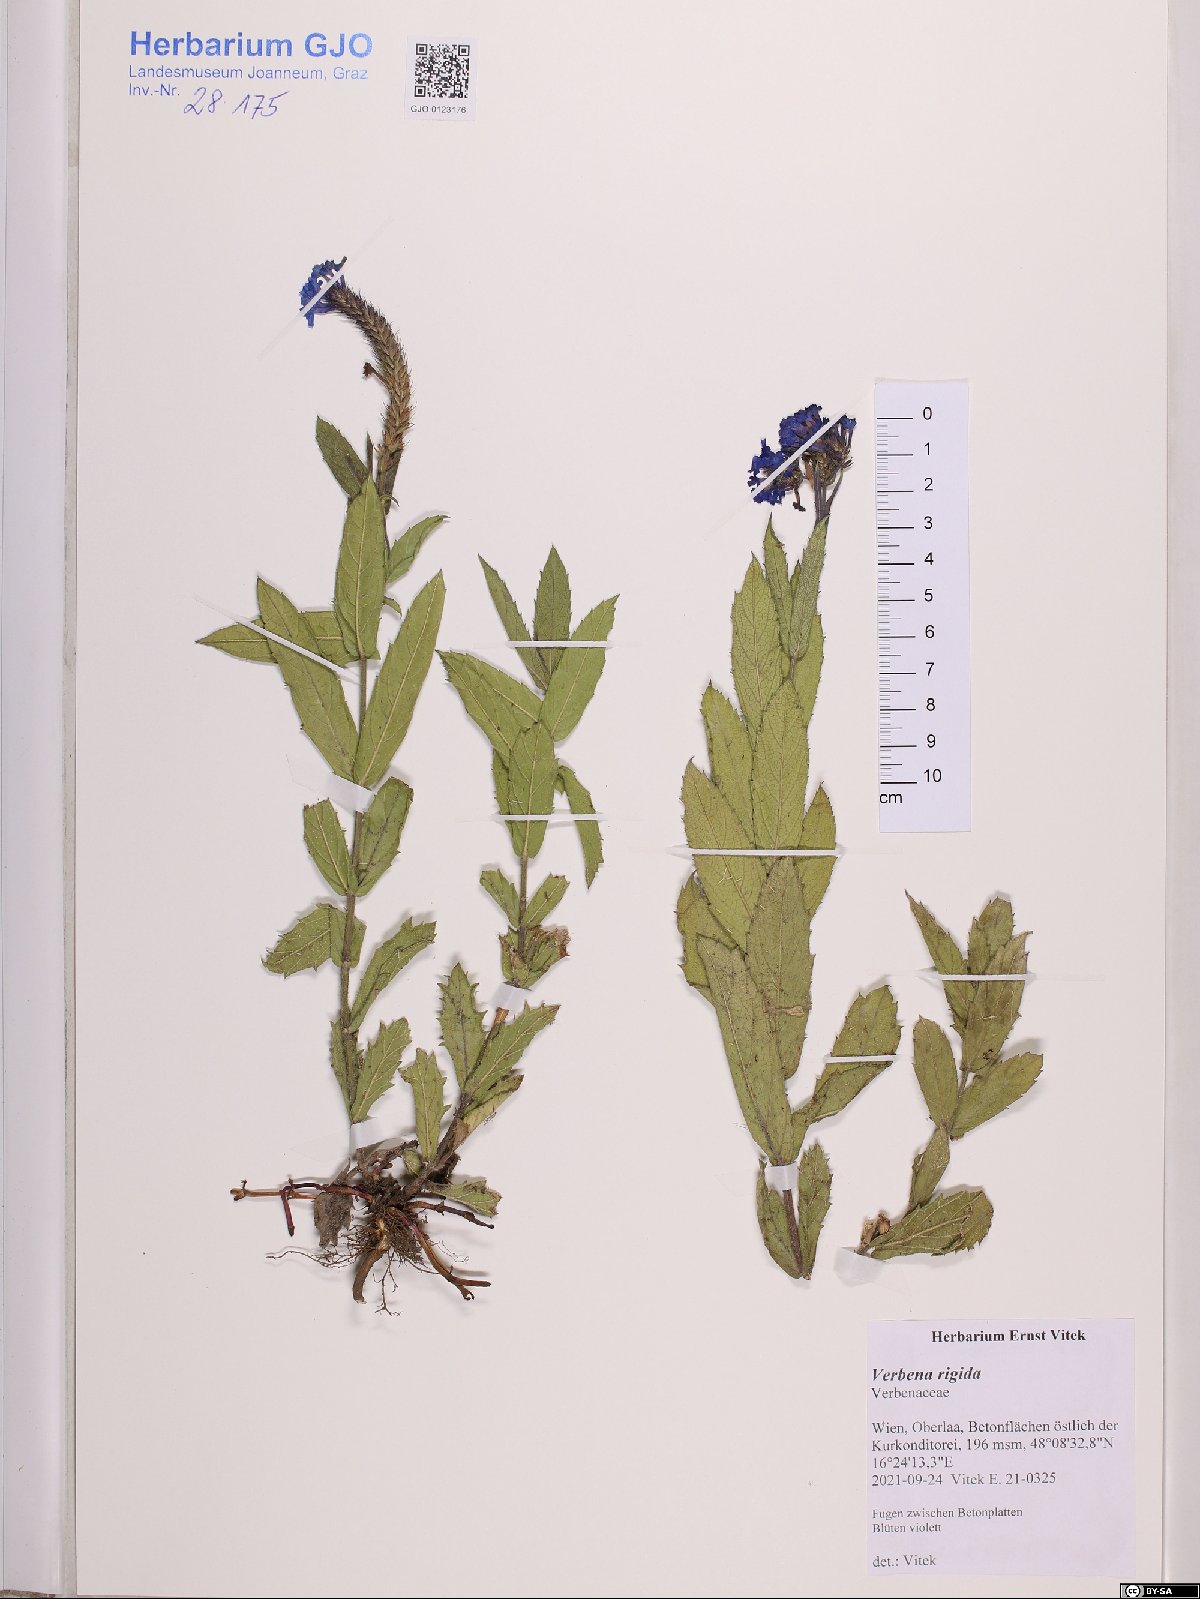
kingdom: Plantae
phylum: Tracheophyta
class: Magnoliopsida
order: Lamiales
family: Verbenaceae
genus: Verbena
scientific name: Verbena rigida
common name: Slender vervain
